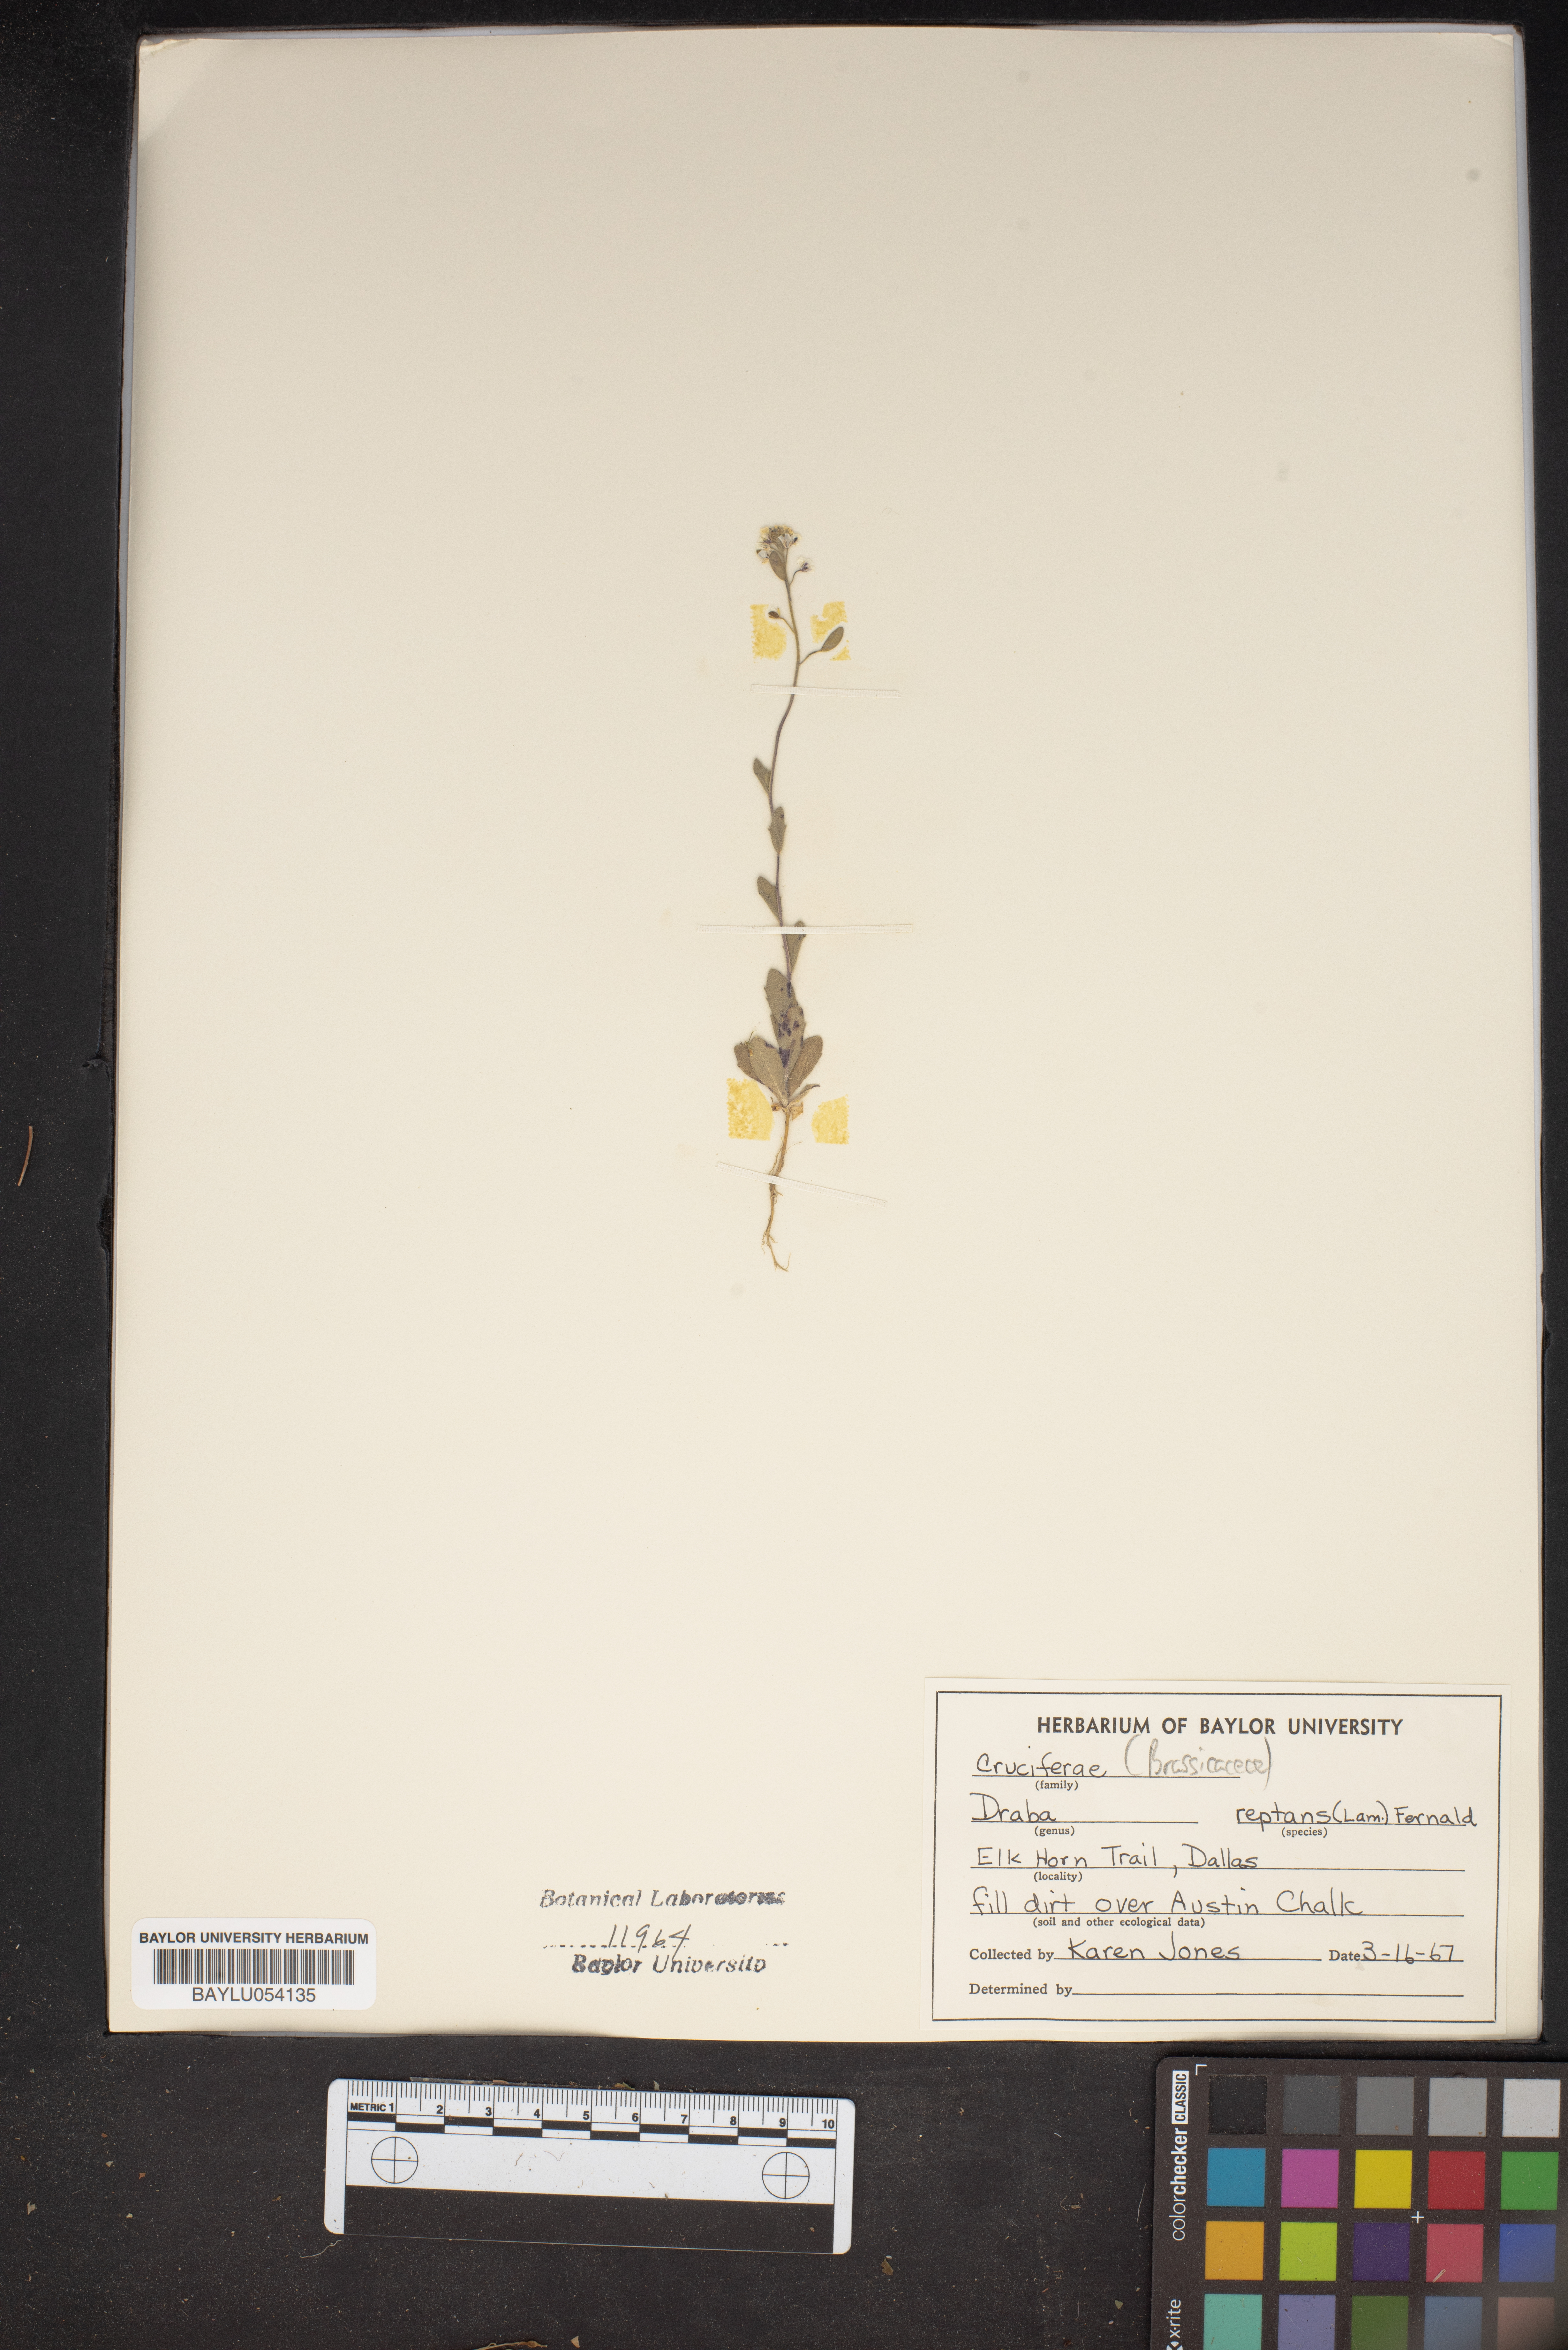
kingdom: Plantae
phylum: Tracheophyta
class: Magnoliopsida
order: Brassicales
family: Brassicaceae
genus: Tomostima
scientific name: Tomostima reptans
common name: Carolina draba
